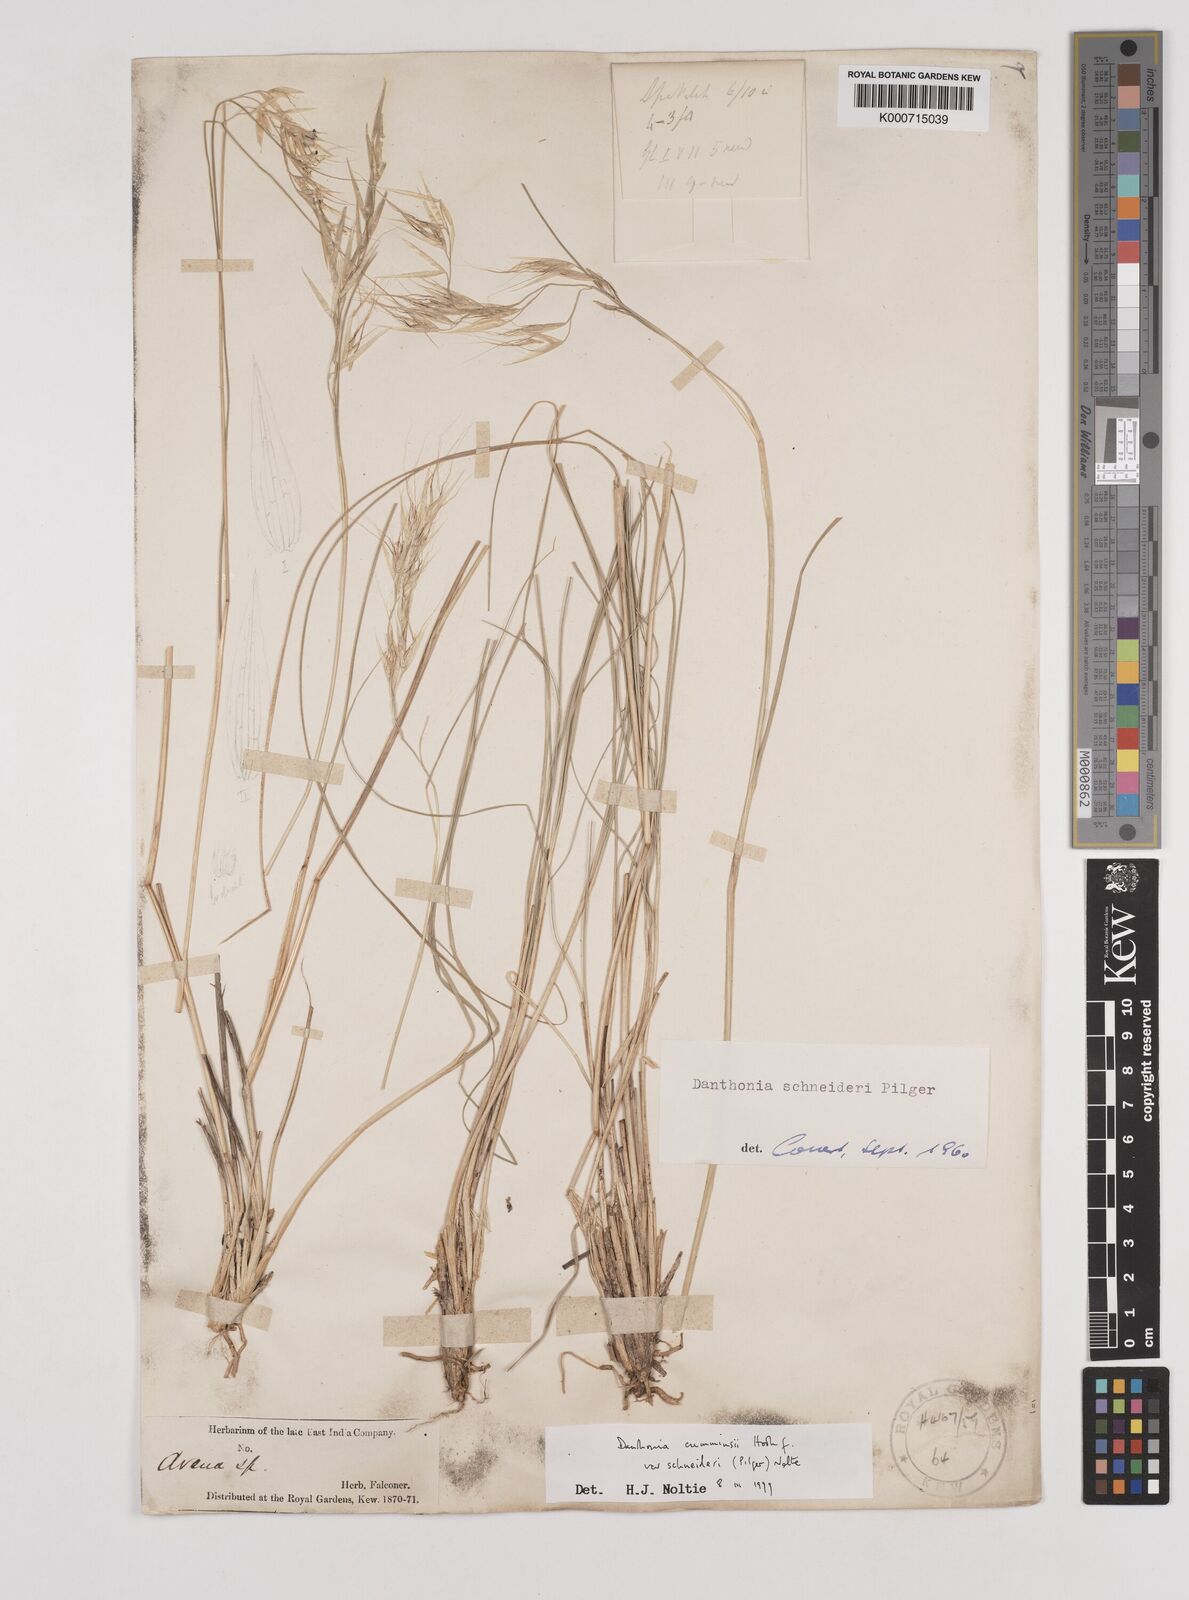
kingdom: Plantae
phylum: Tracheophyta
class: Liliopsida
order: Poales
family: Poaceae
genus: Rytidosperma
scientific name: Rytidosperma
